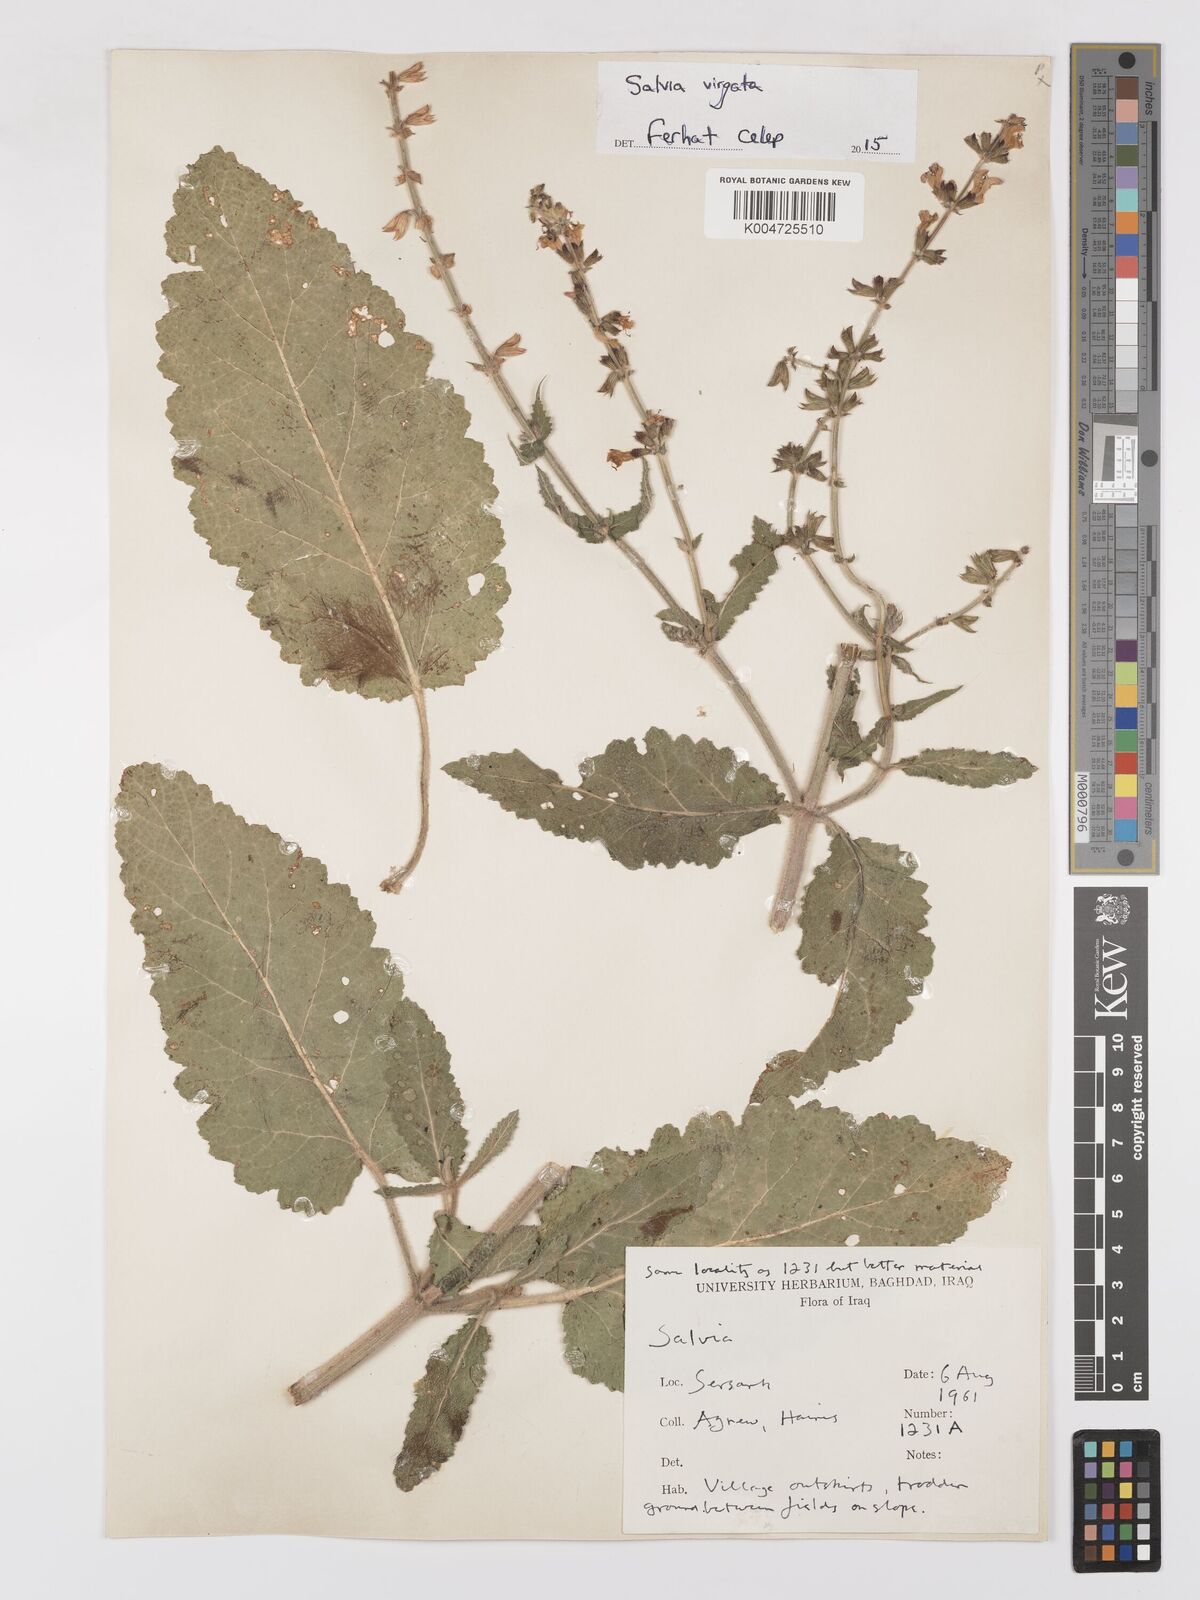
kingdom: Plantae
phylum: Tracheophyta
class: Magnoliopsida
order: Lamiales
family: Lamiaceae
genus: Salvia
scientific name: Salvia
